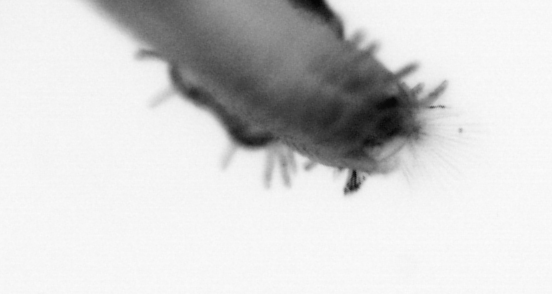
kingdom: Animalia
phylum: Annelida
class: Polychaeta
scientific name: Polychaeta
